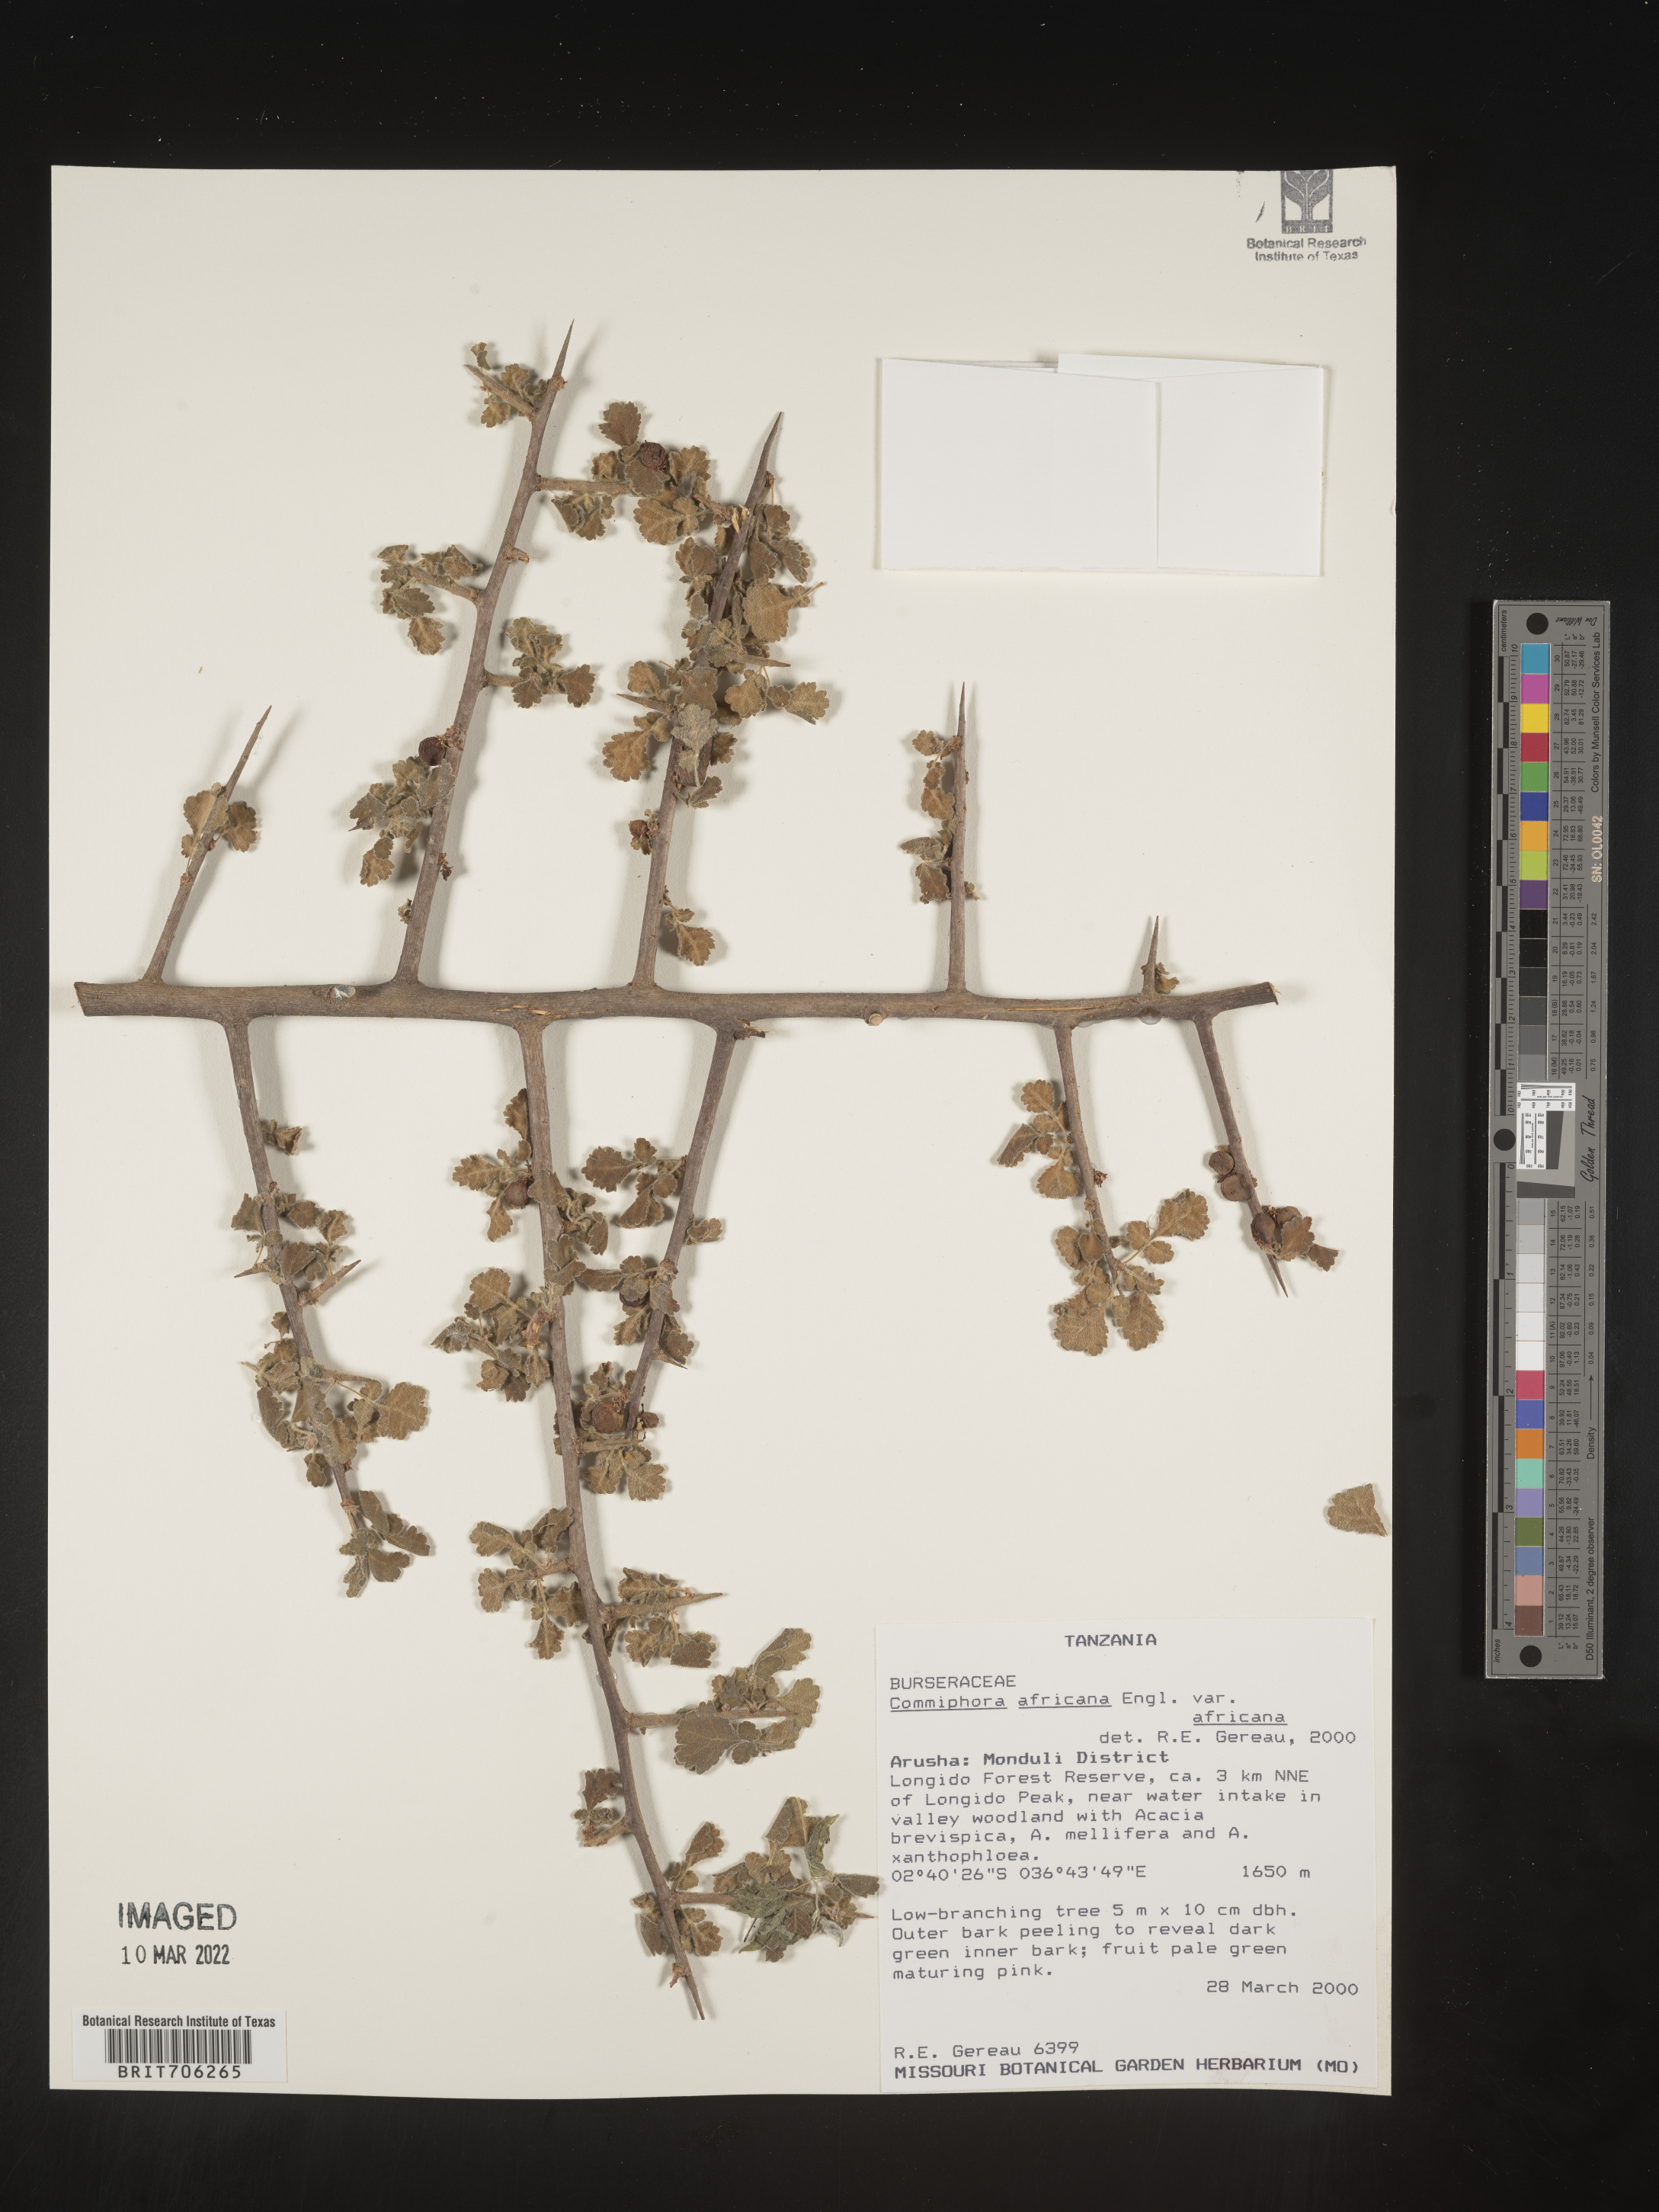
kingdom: Plantae
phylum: Tracheophyta
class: Magnoliopsida
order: Sapindales
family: Burseraceae
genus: Commiphora
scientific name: Commiphora
